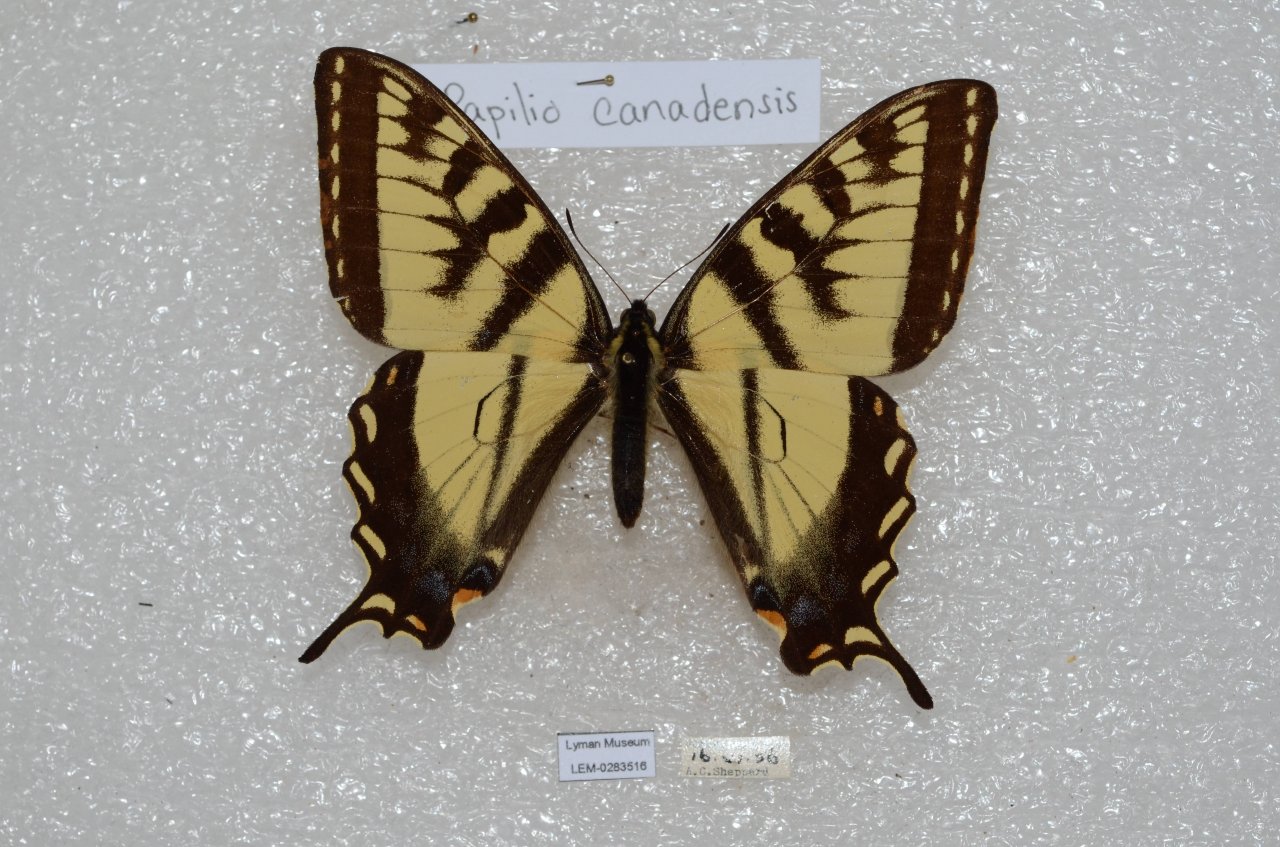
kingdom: Animalia
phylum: Arthropoda
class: Insecta
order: Lepidoptera
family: Papilionidae
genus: Pterourus
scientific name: Pterourus canadensis
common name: Canadian Tiger Swallowtail
